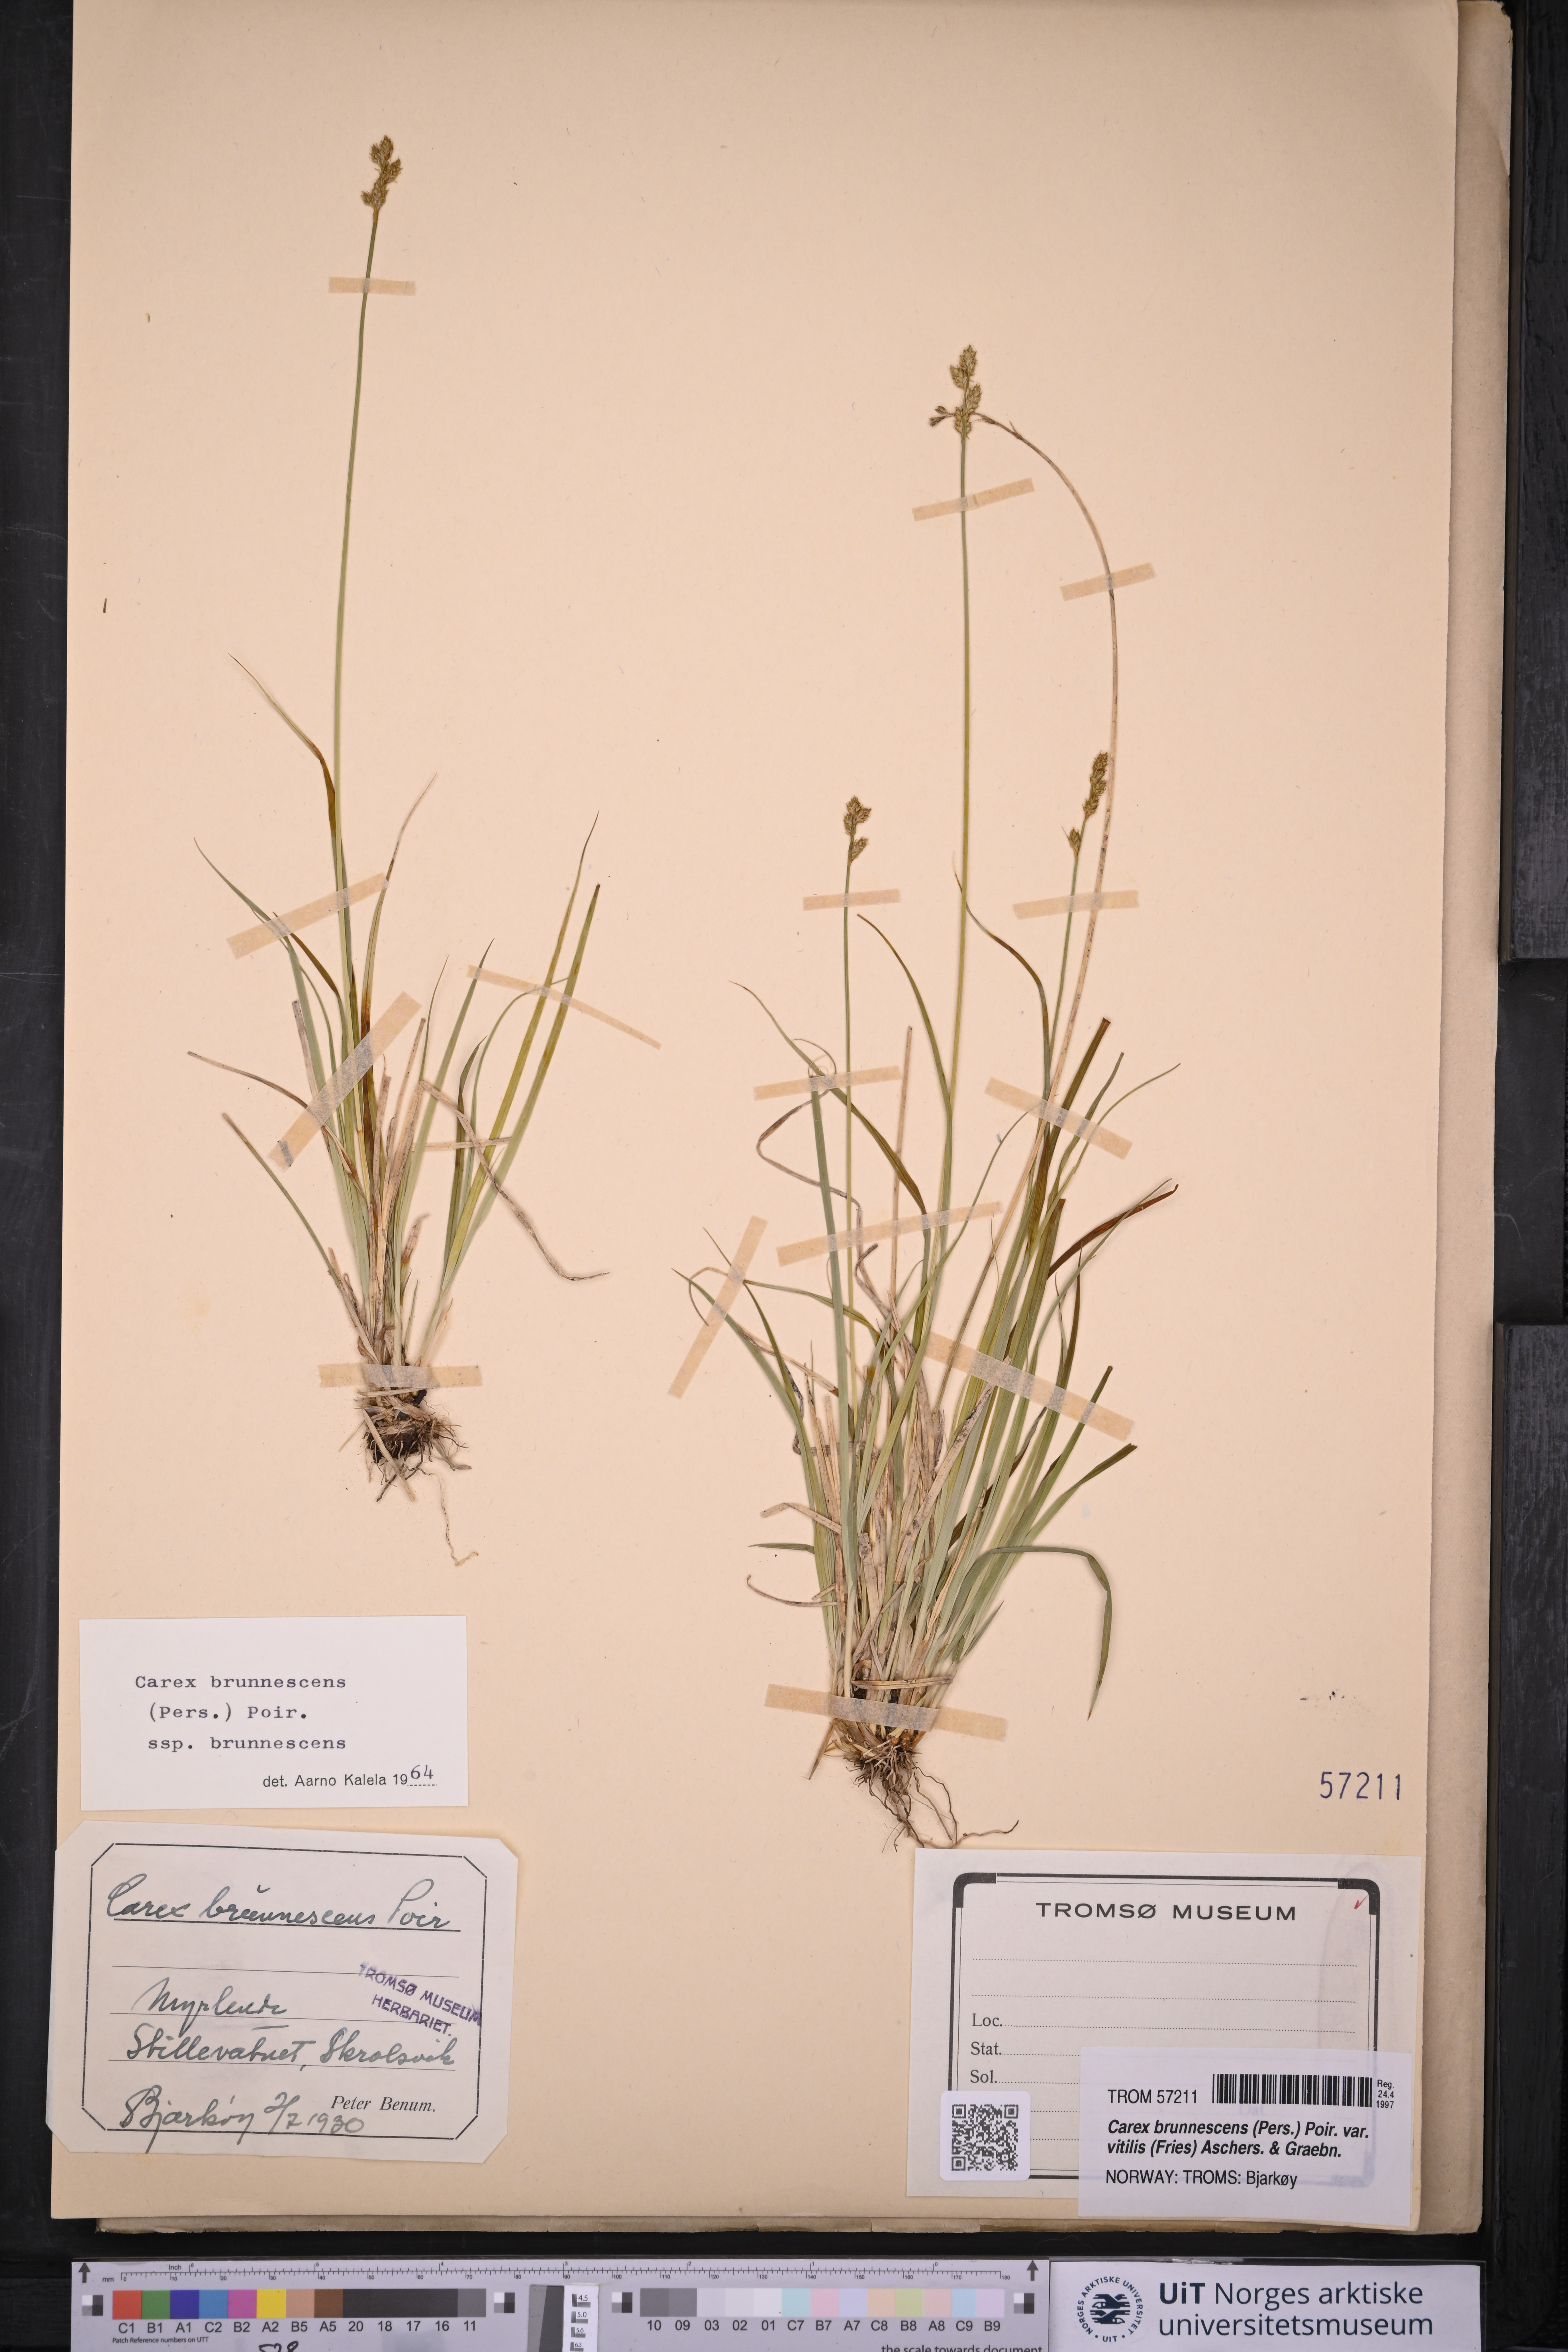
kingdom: Plantae
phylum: Tracheophyta
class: Liliopsida
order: Poales
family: Cyperaceae
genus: Carex
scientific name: Carex brunnescens
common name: Brown sedge
